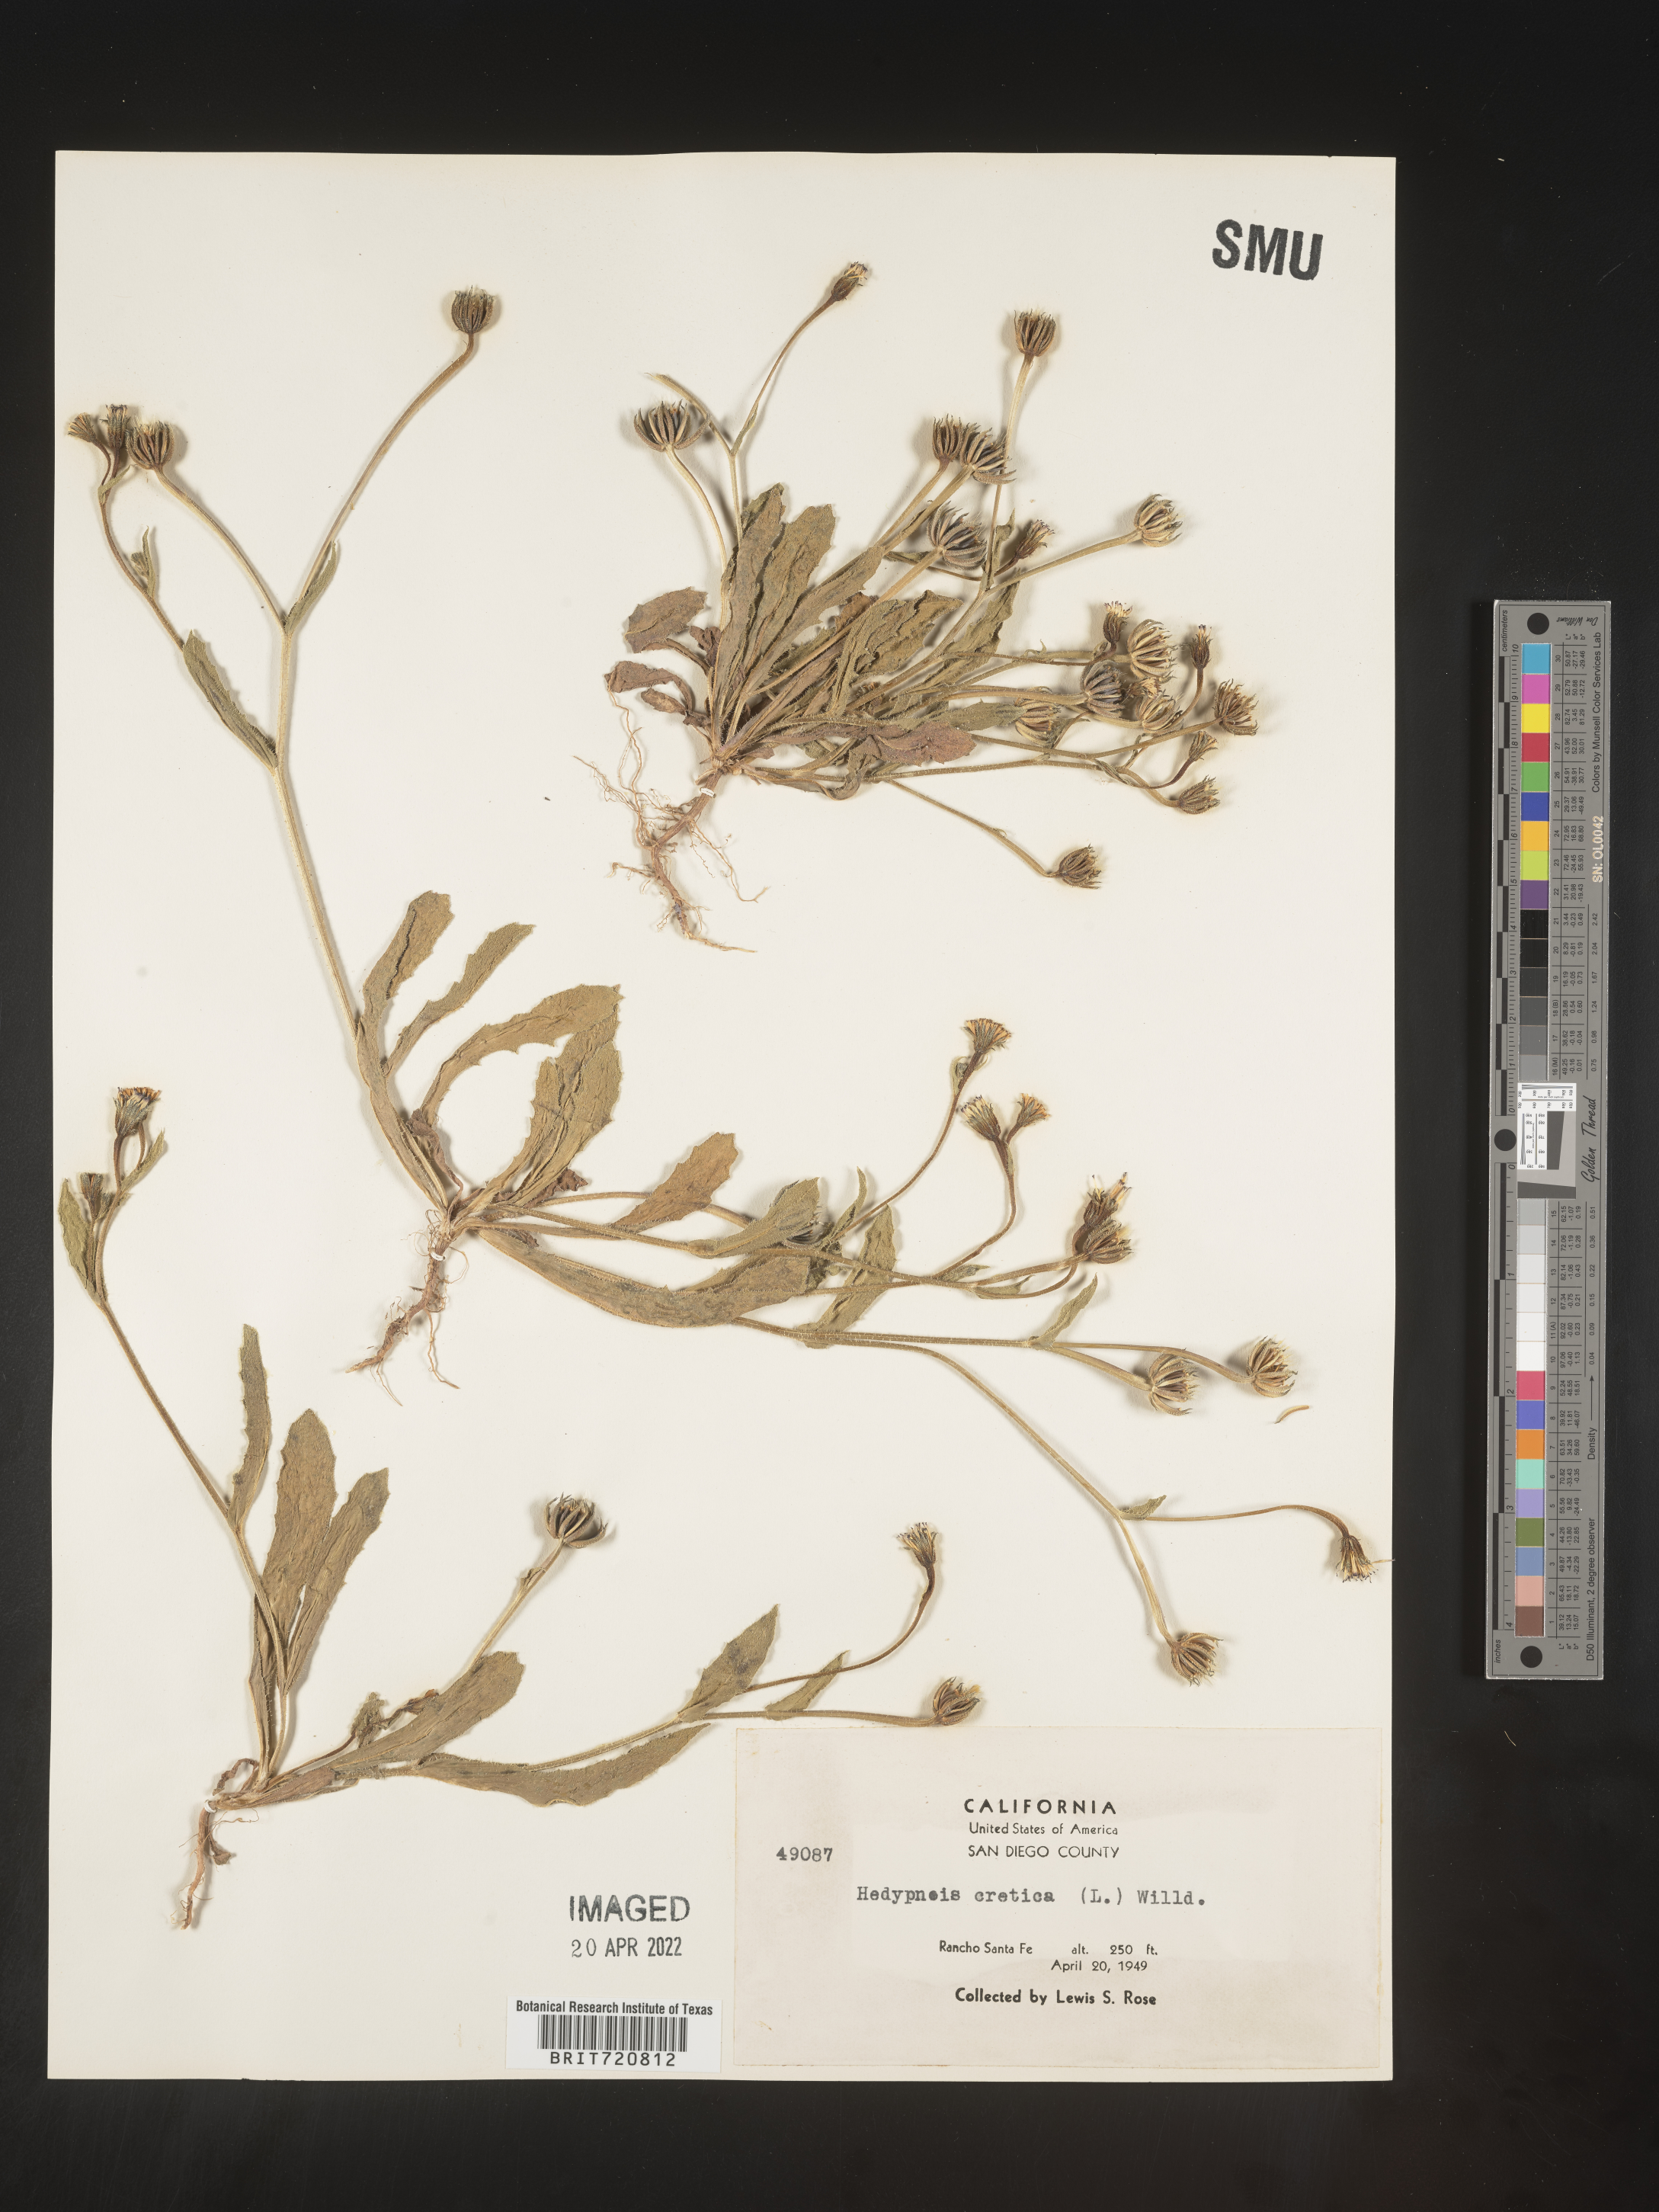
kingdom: Plantae
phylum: Tracheophyta
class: Magnoliopsida
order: Asterales
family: Asteraceae
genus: Hedypnois
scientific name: Hedypnois
